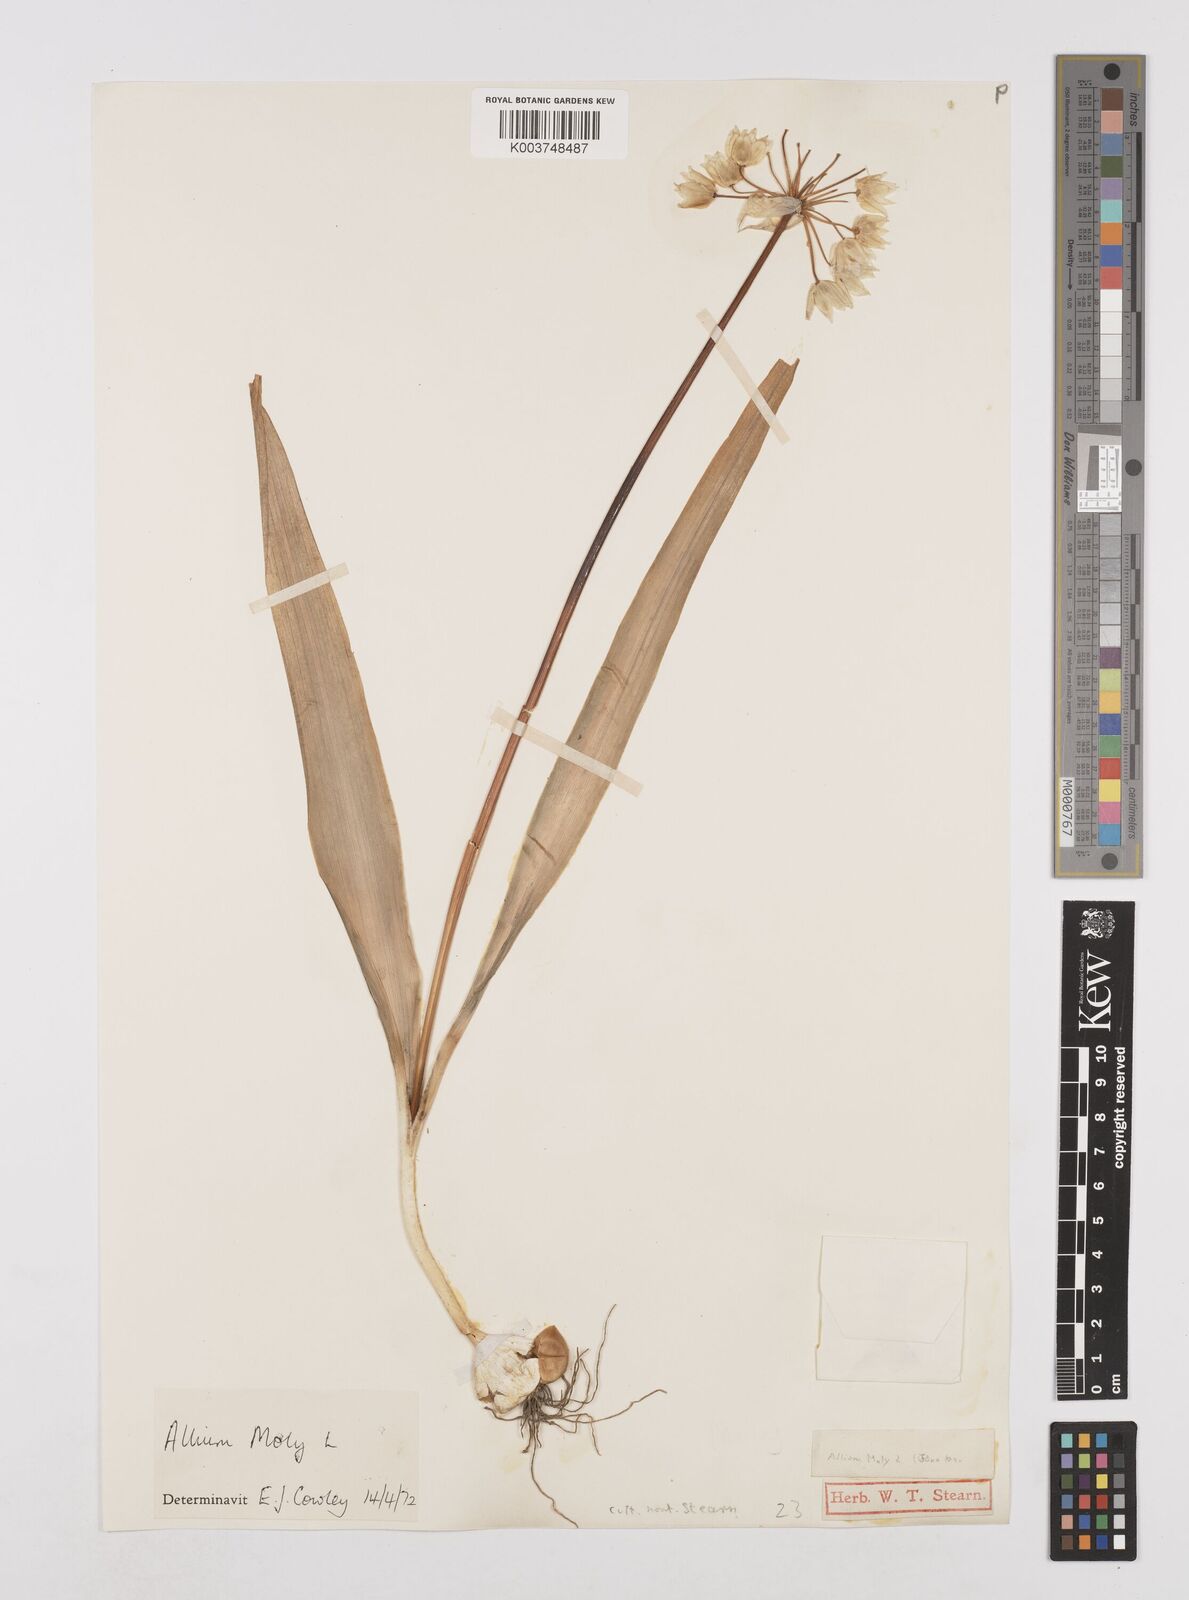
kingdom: Plantae
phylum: Tracheophyta
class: Liliopsida
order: Asparagales
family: Amaryllidaceae
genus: Allium
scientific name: Allium moly
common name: Yellow garlic
